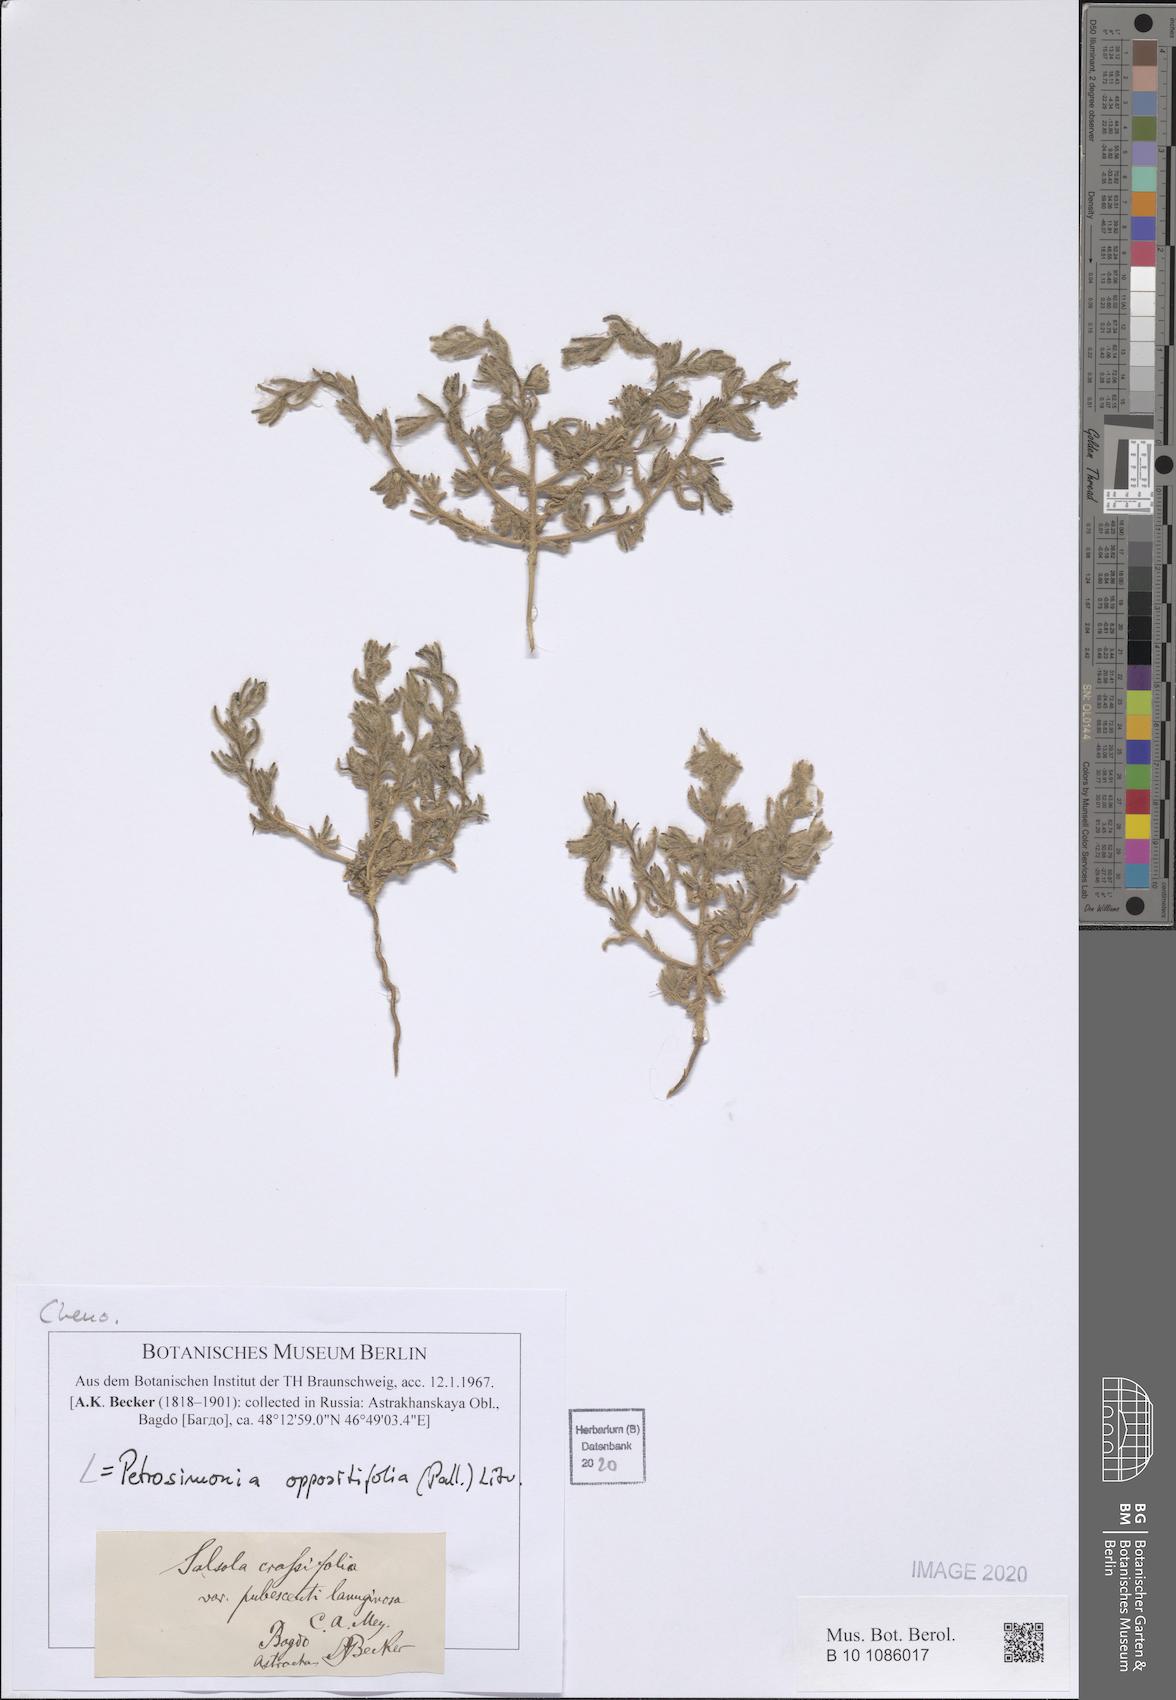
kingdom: Plantae
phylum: Tracheophyta
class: Magnoliopsida
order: Caryophyllales
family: Amaranthaceae
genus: Petrosimonia
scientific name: Petrosimonia oppositifolia
